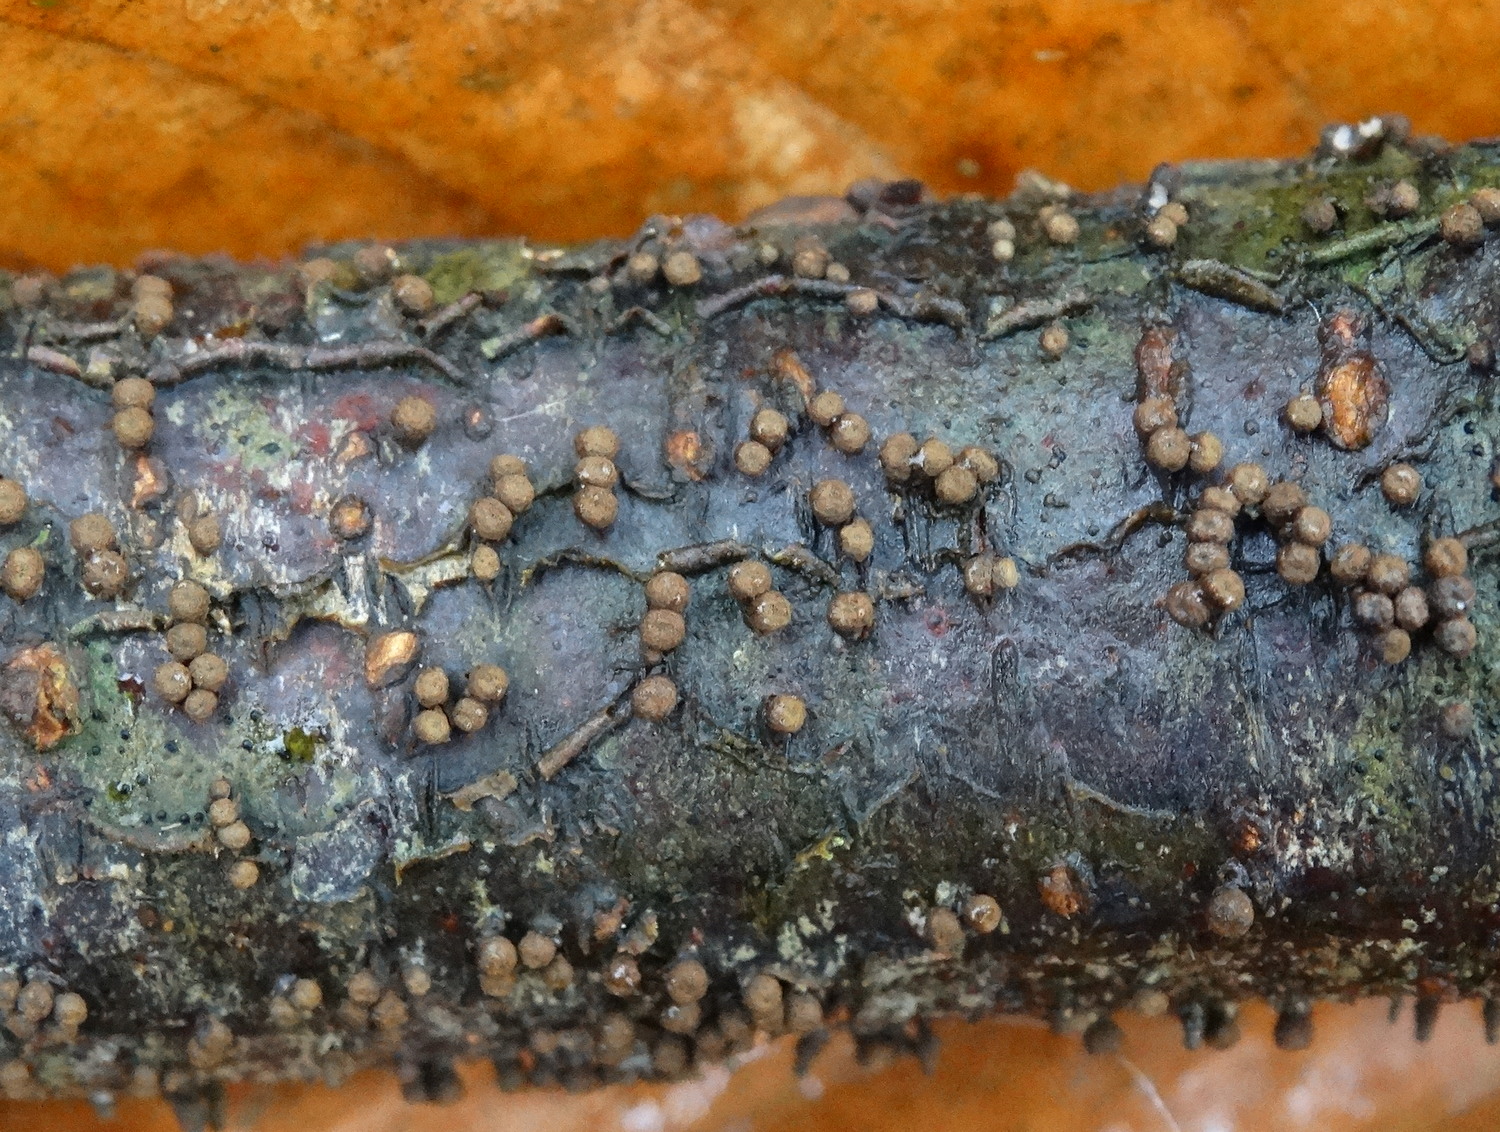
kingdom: Fungi
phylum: Ascomycota
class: Leotiomycetes
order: Helotiales
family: Godroniaceae
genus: Godronia
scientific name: Godronia uberiformis
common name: solbær-urneskive
